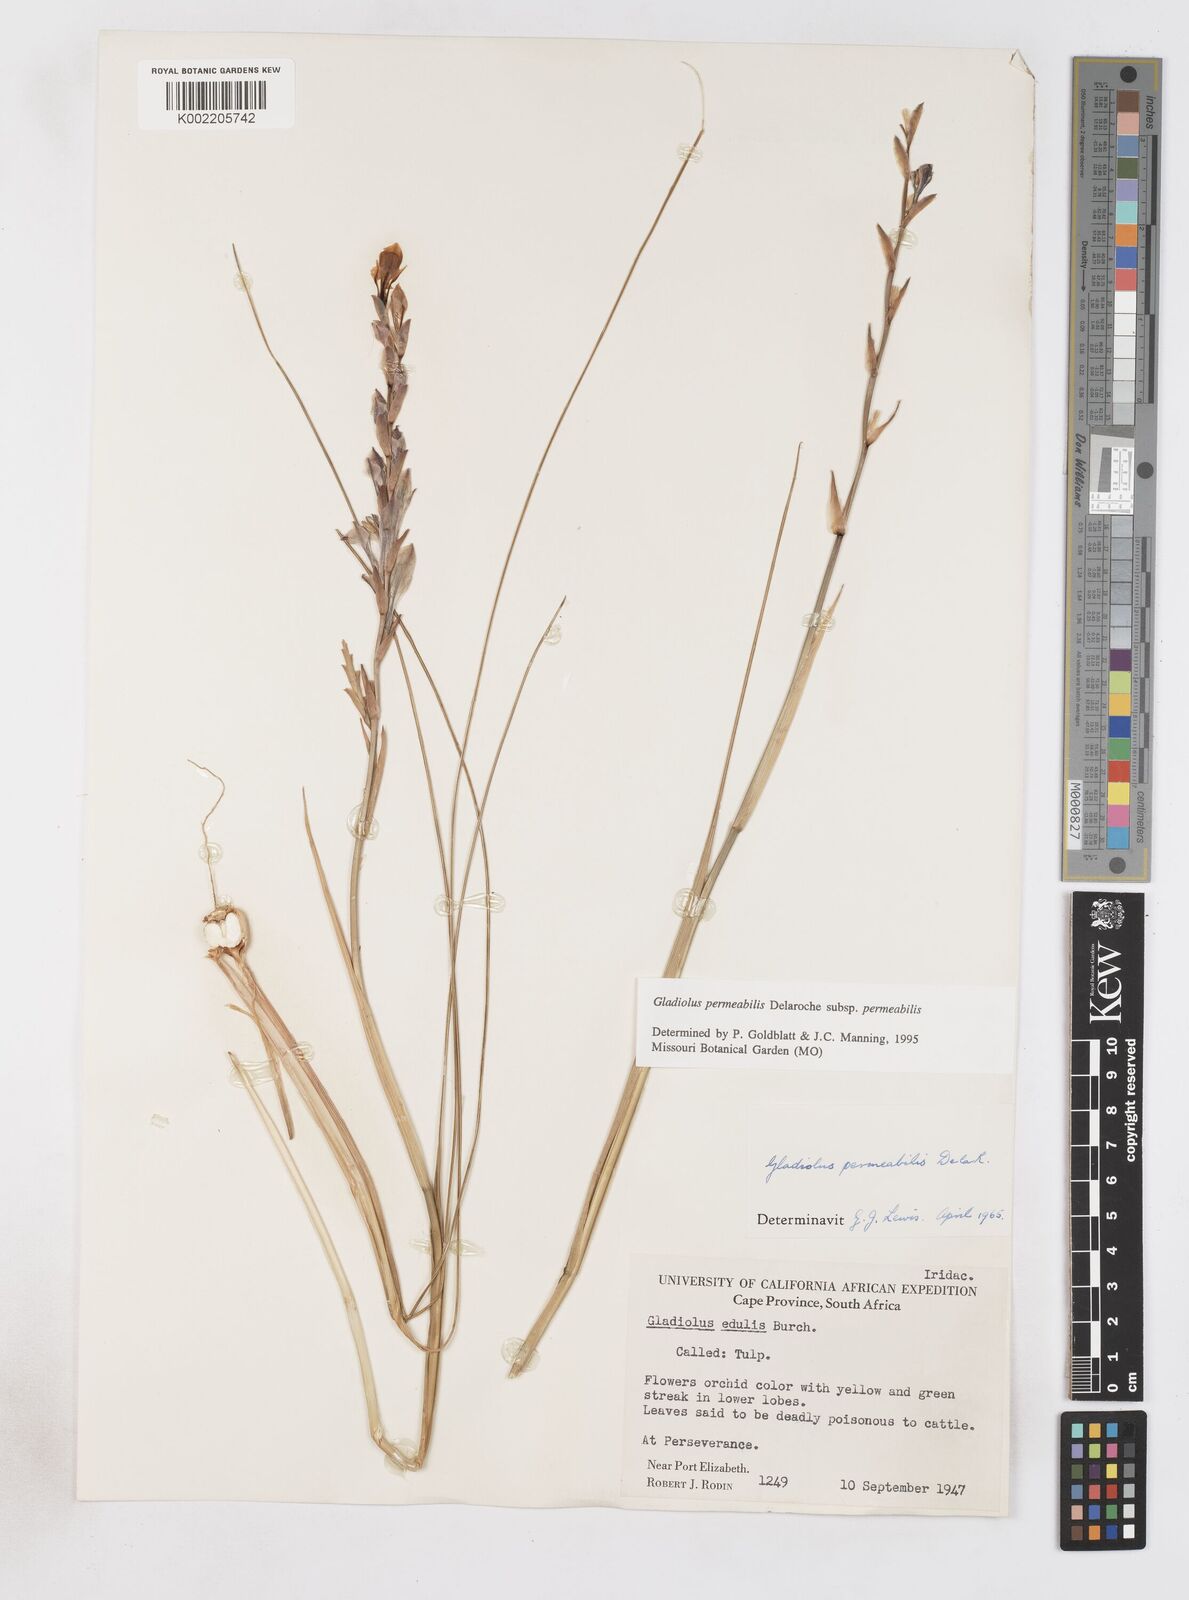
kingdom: Plantae
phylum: Tracheophyta
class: Liliopsida
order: Asparagales
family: Iridaceae
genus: Gladiolus
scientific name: Gladiolus permeabilis
